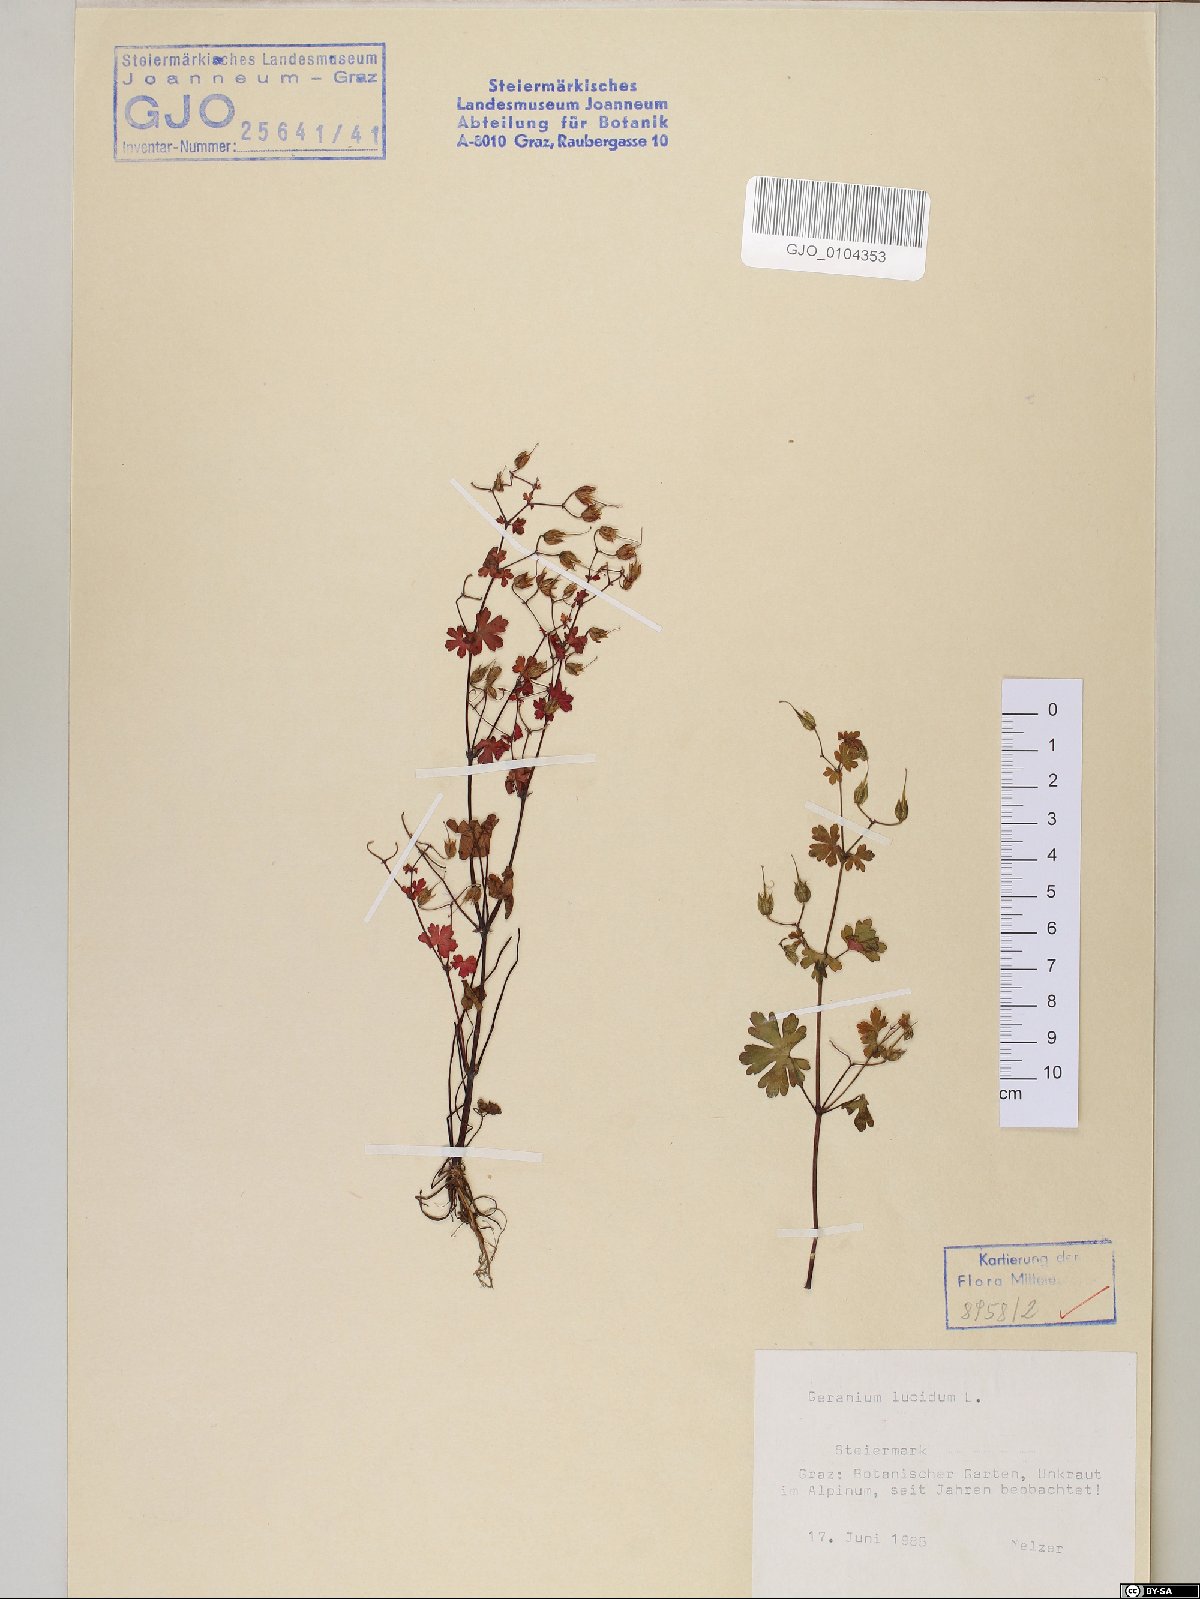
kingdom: Plantae
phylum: Tracheophyta
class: Magnoliopsida
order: Geraniales
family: Geraniaceae
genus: Geranium
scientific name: Geranium lucidum
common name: Shining crane's-bill
